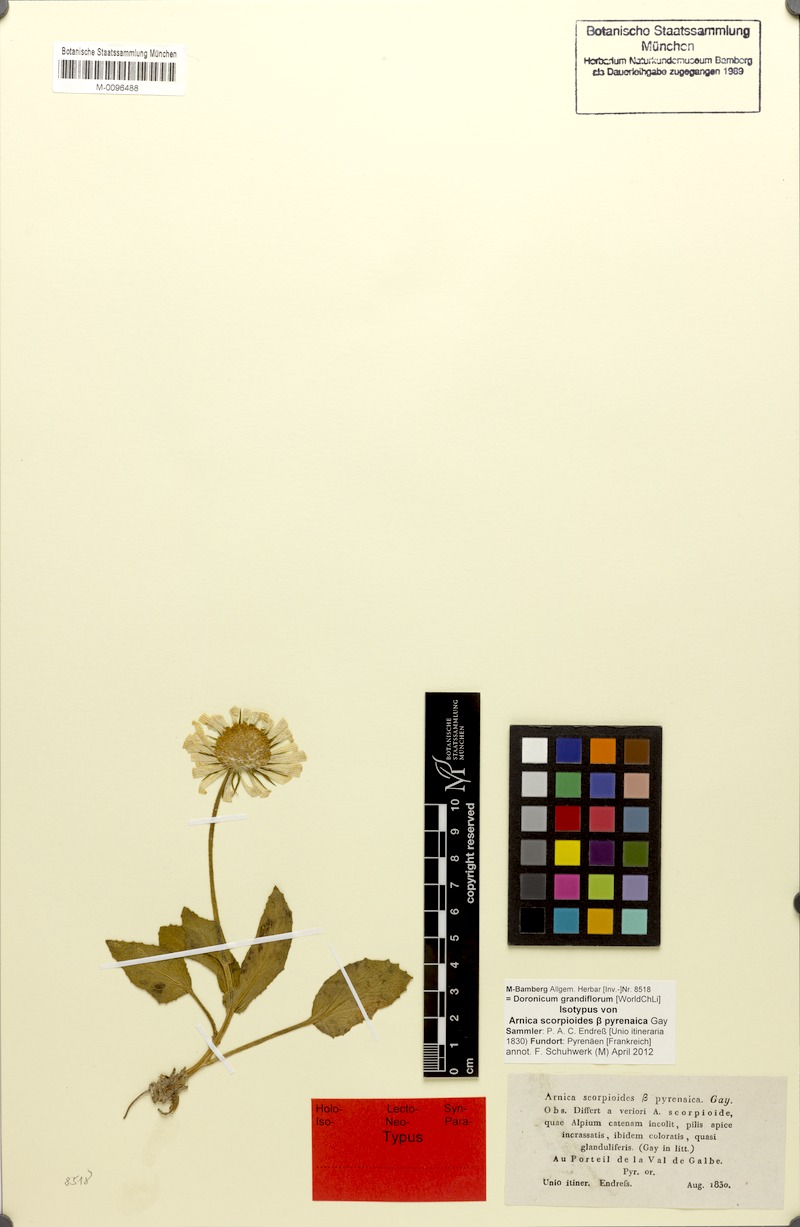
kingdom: Plantae
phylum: Tracheophyta
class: Magnoliopsida
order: Asterales
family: Asteraceae
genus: Doronicum
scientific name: Doronicum grandiflorum
